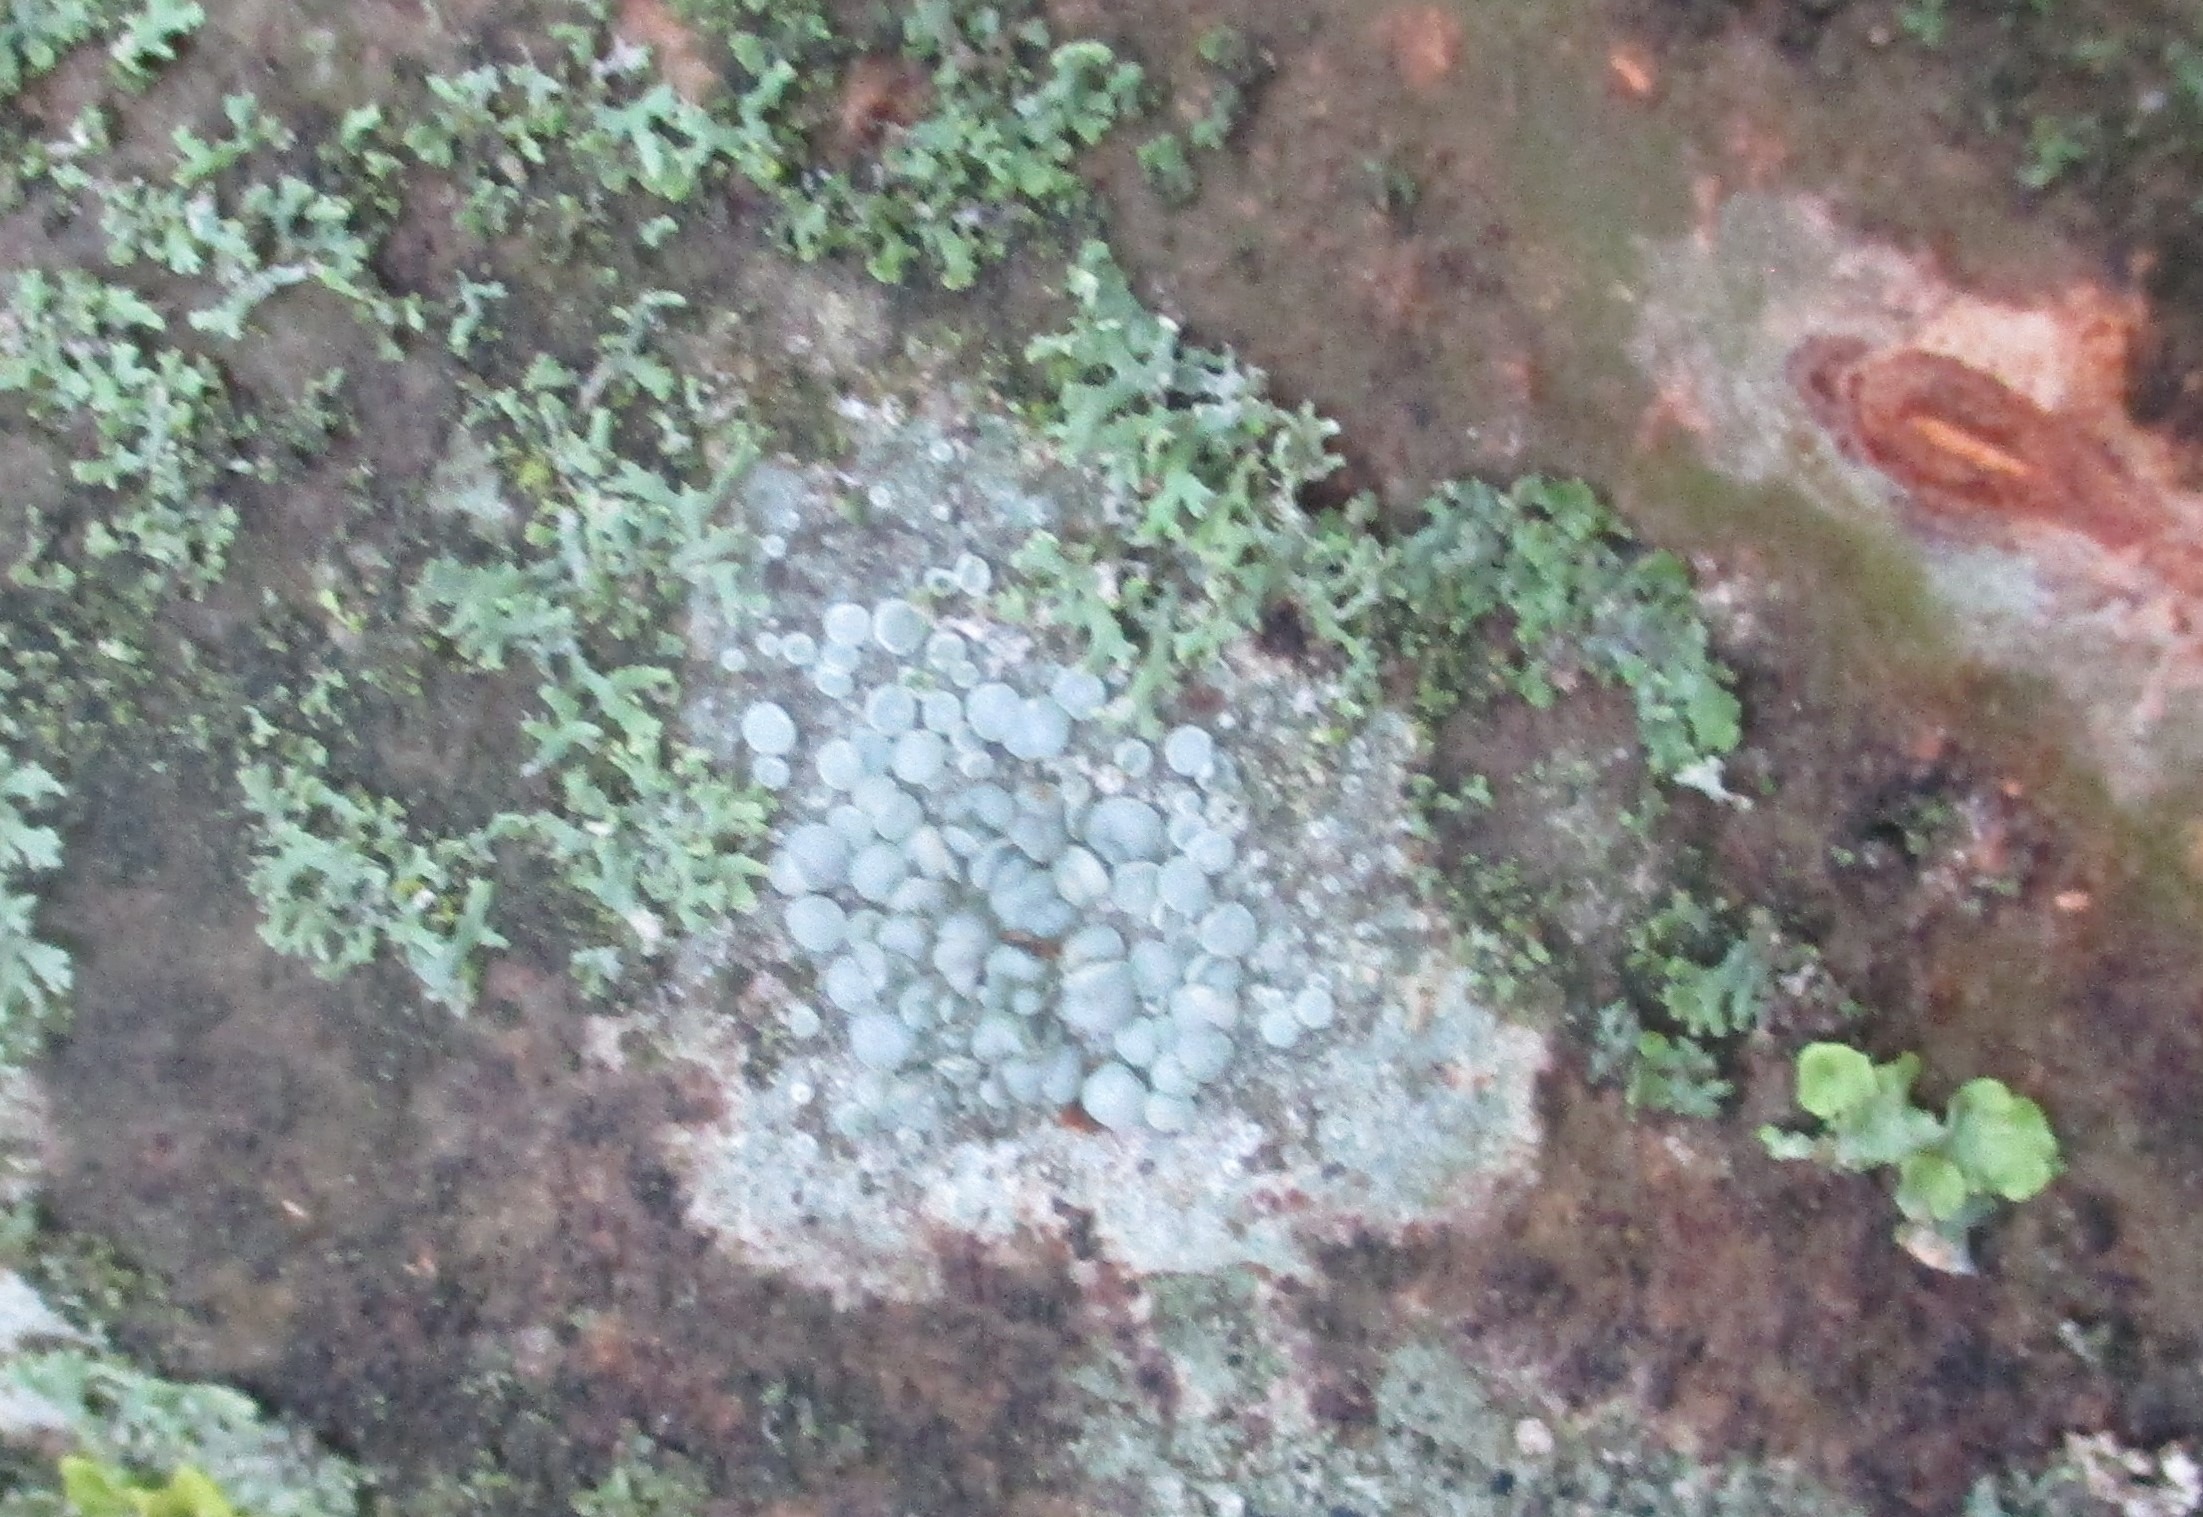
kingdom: Fungi
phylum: Ascomycota
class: Lecanoromycetes
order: Lecanorales
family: Lecanoraceae
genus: Glaucomaria
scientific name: Glaucomaria carpinea
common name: Hviddugget kantskivelav
